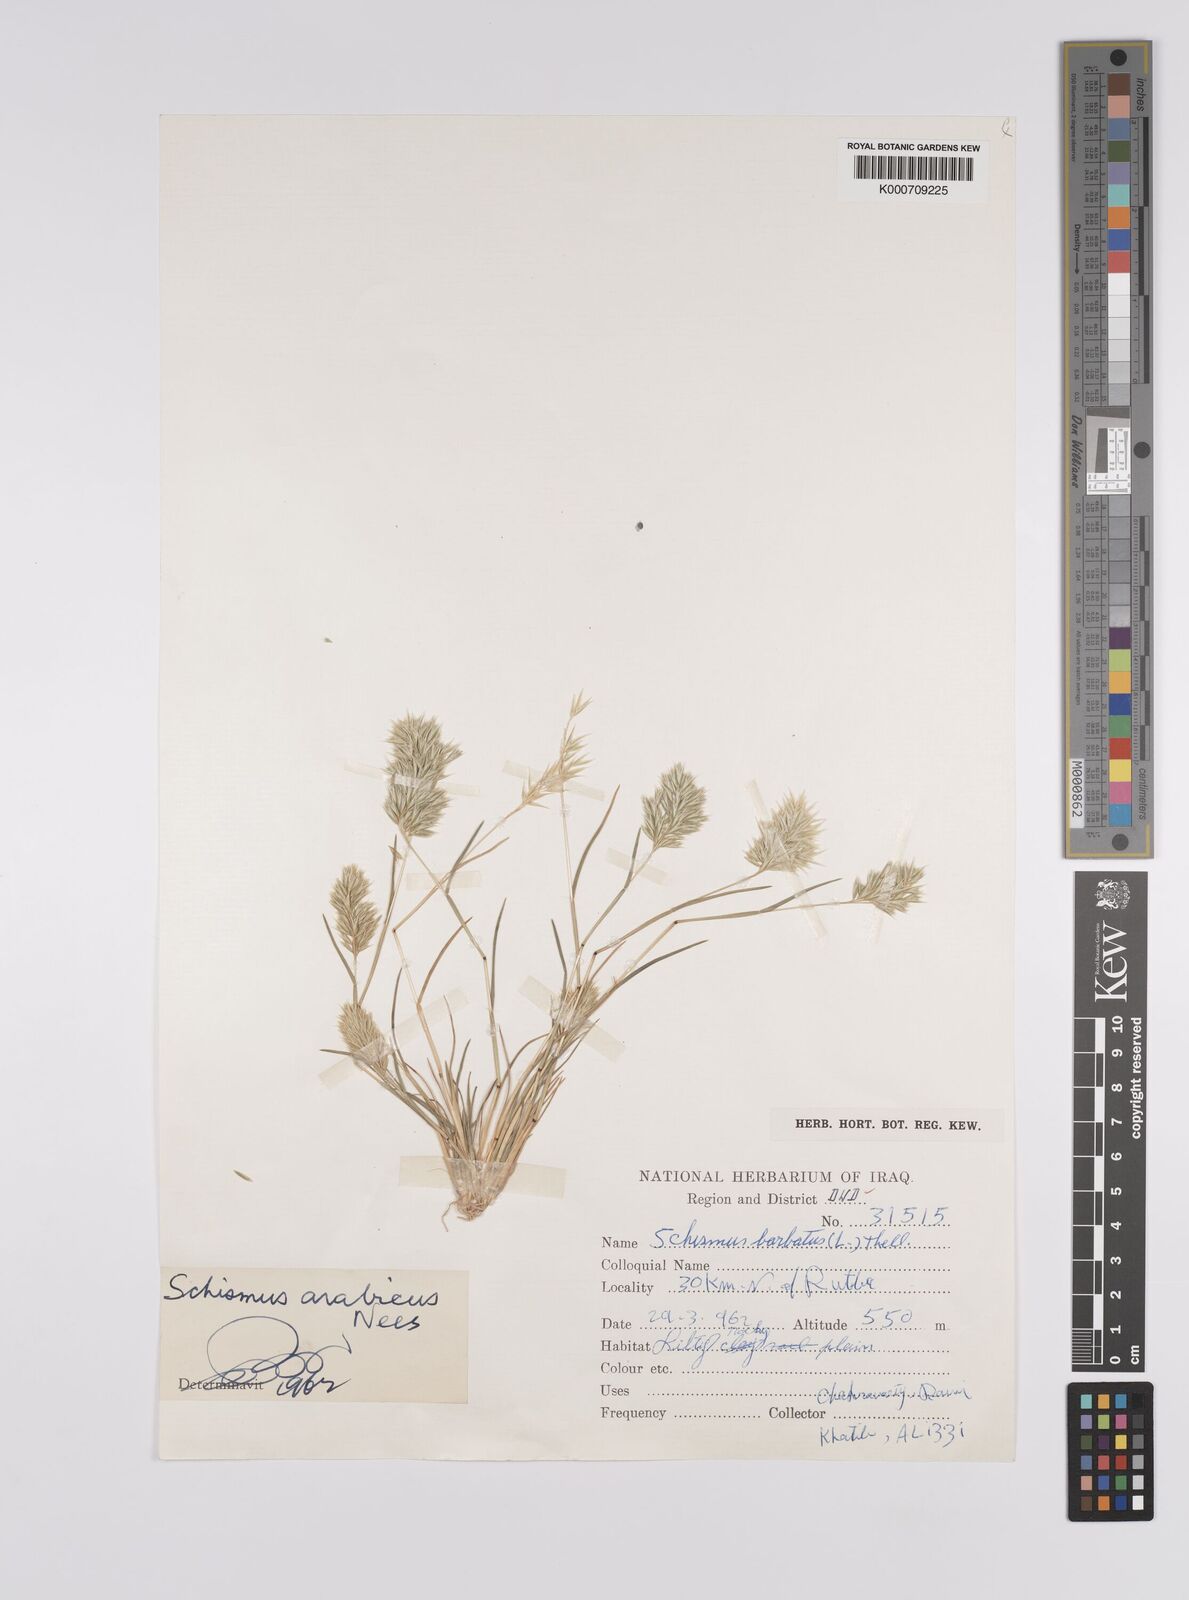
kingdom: Plantae
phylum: Tracheophyta
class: Liliopsida
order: Poales
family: Poaceae
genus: Schismus
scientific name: Schismus barbatus
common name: Kelch-grass
